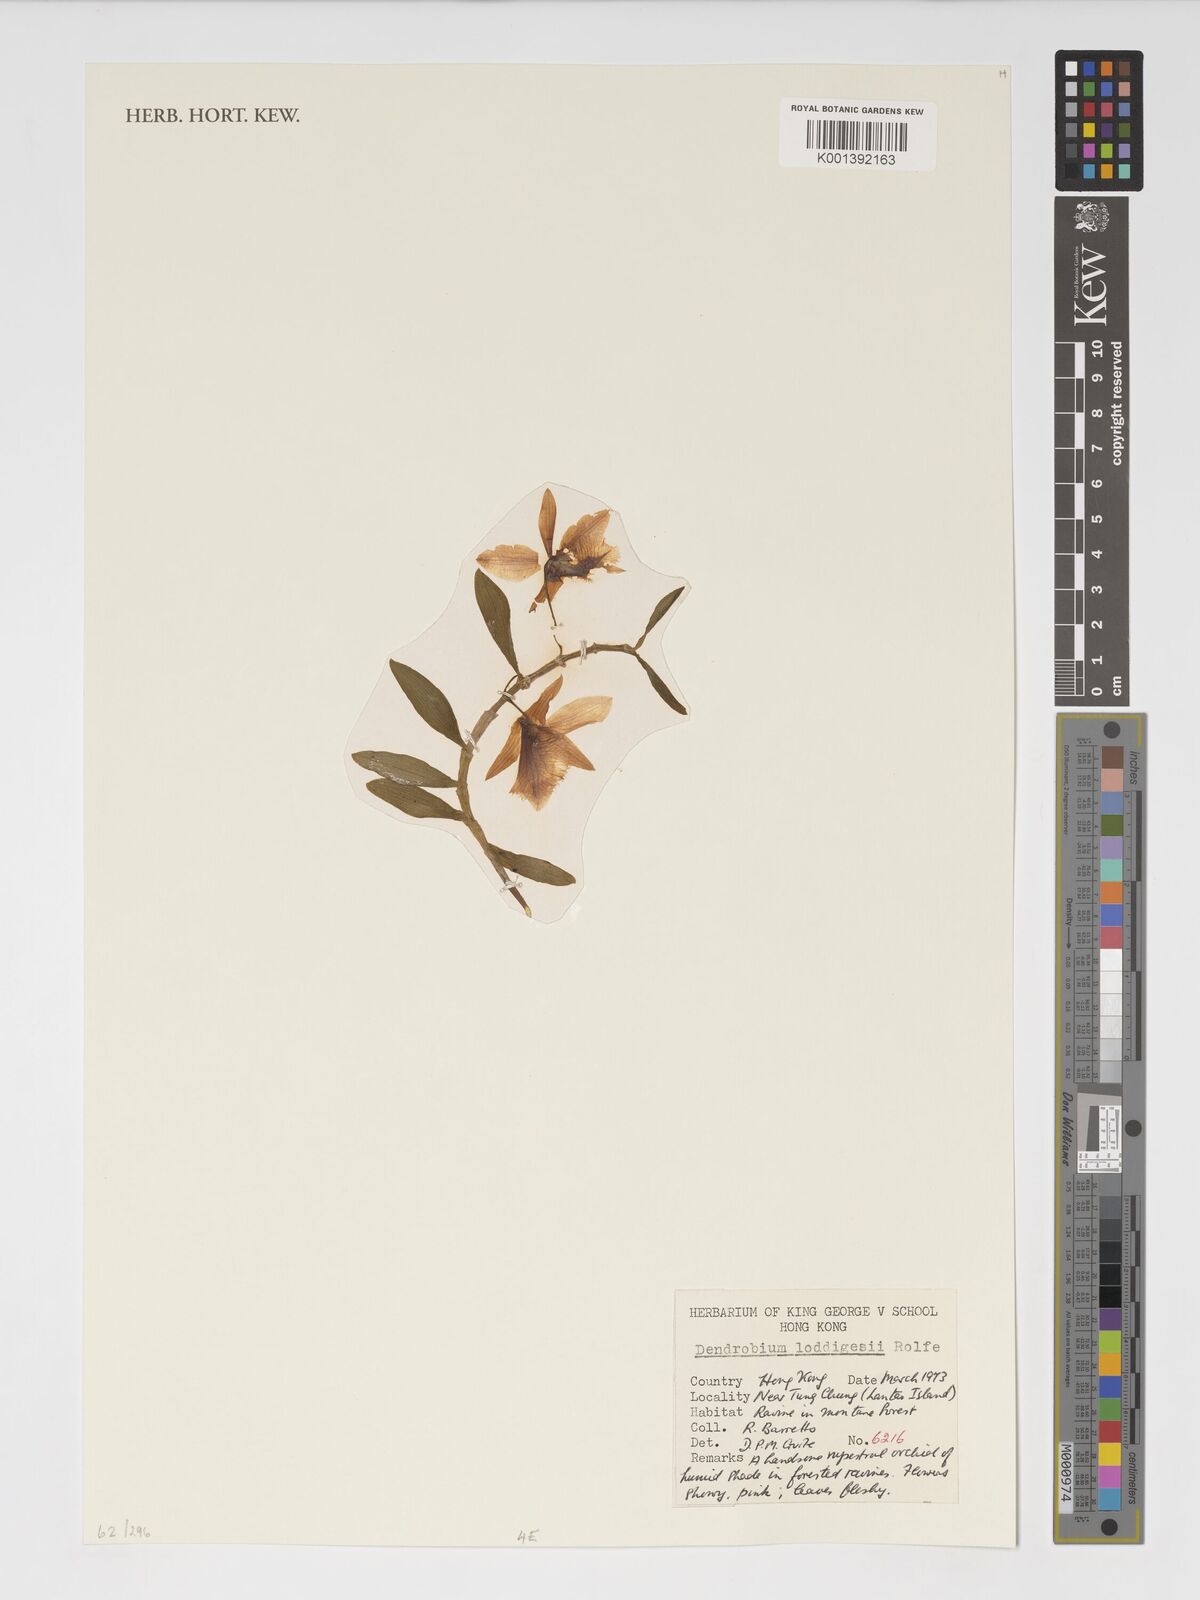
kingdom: Plantae
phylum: Tracheophyta
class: Liliopsida
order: Asparagales
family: Orchidaceae
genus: Dendrobium
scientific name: Dendrobium loddigesii
